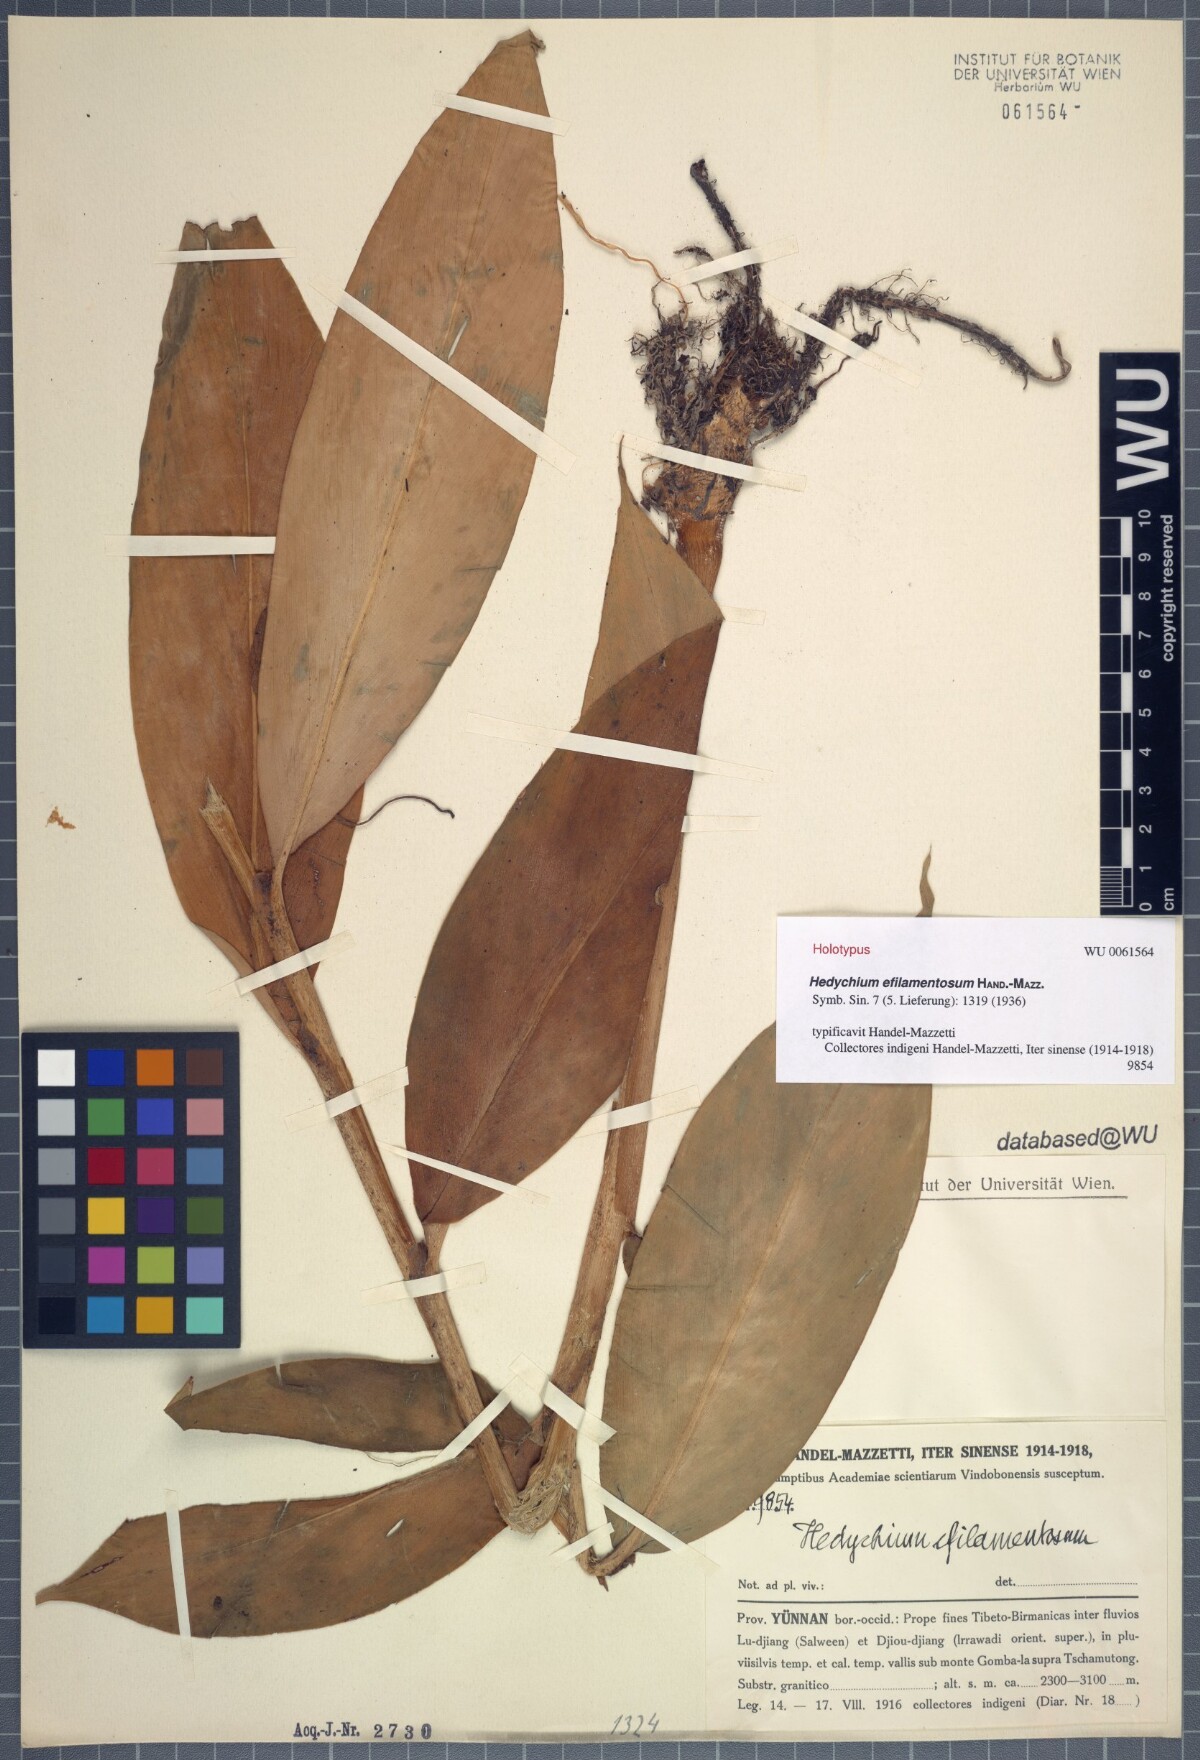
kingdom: Plantae
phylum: Tracheophyta
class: Liliopsida
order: Zingiberales
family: Zingiberaceae
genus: Hedychium
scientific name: Hedychium efilamentosum
